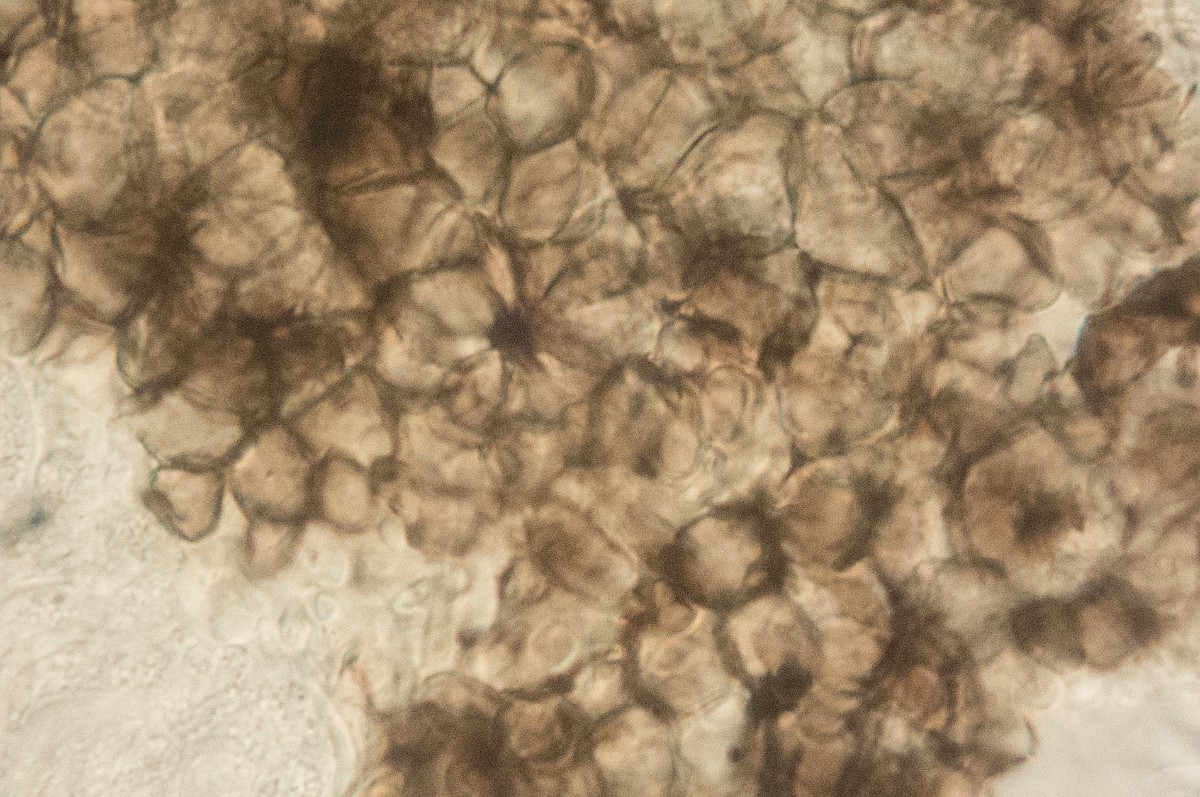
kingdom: Fungi
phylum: Ascomycota
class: Leotiomycetes
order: Helotiales
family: Ploettnerulaceae
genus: Pyrenopeziza
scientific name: Pyrenopeziza galii-veri
